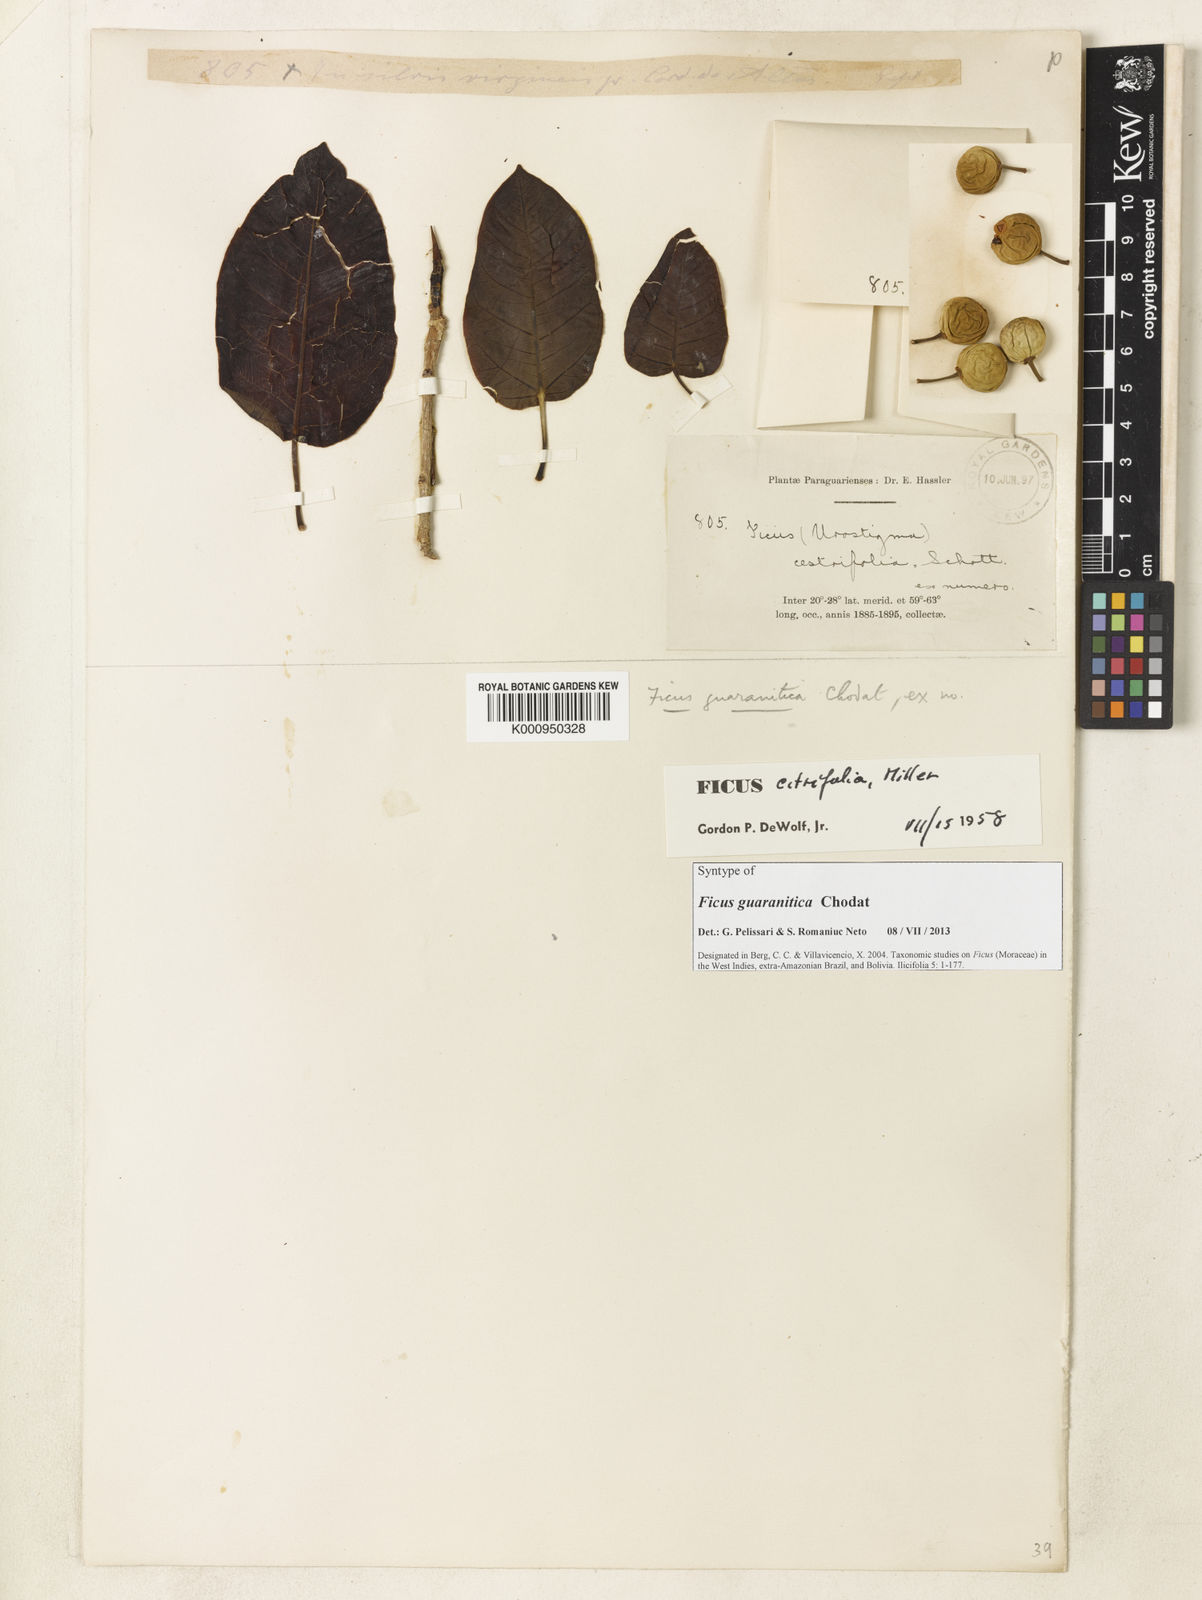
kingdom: Plantae
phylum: Tracheophyta
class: Magnoliopsida
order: Rosales
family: Moraceae
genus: Ficus
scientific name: Ficus guaranitica
